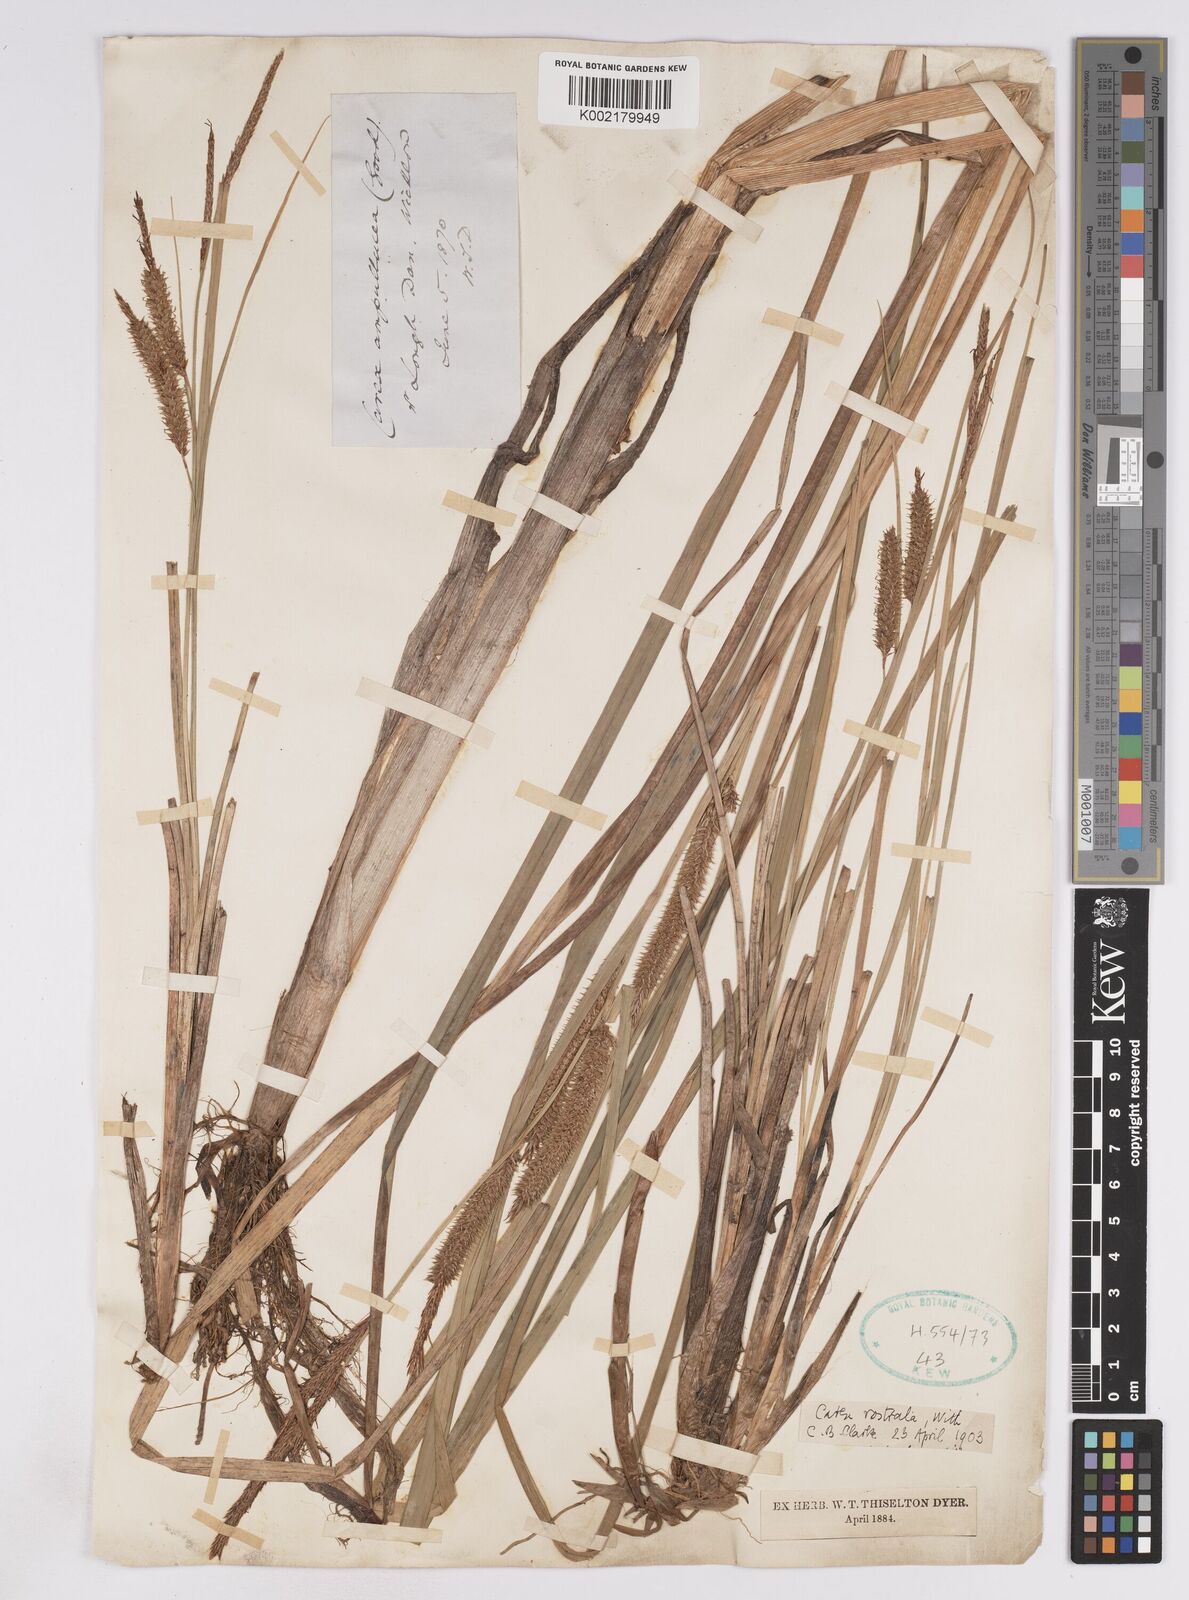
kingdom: Plantae
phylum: Tracheophyta
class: Liliopsida
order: Poales
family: Cyperaceae
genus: Carex
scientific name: Carex utriculata
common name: Beaked sedge
